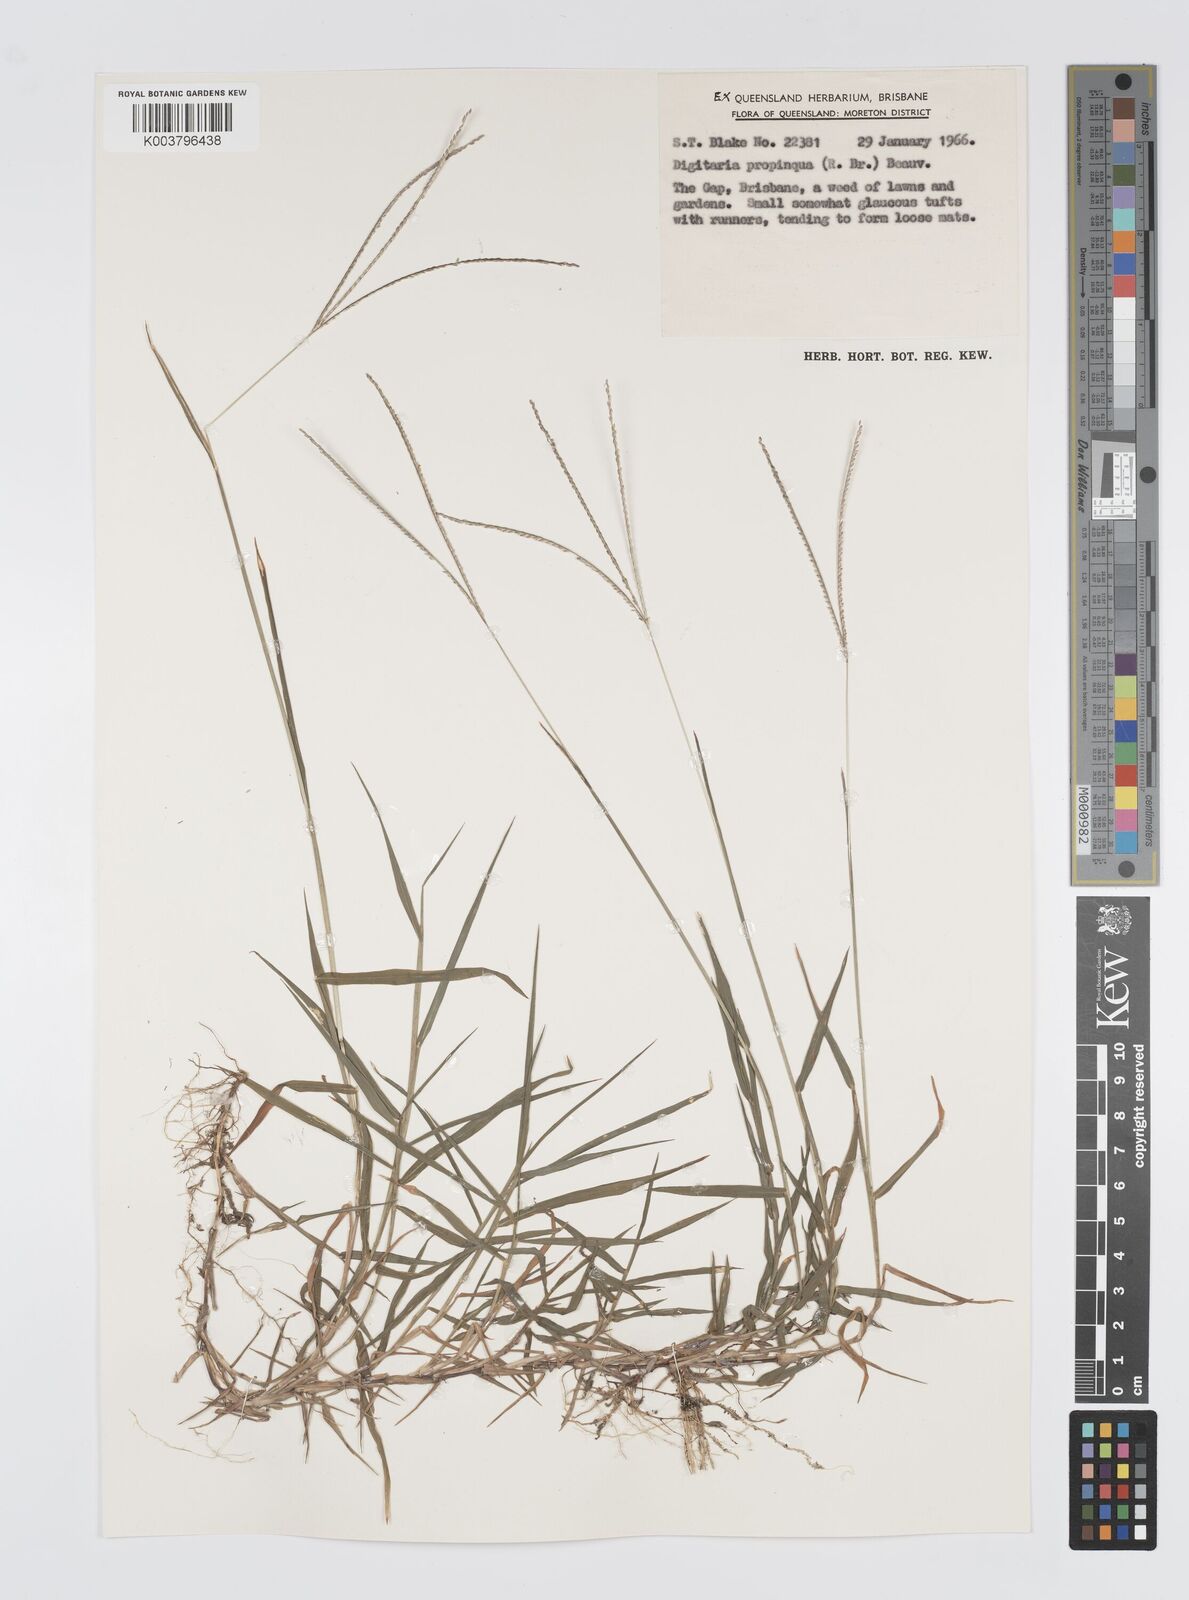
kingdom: Plantae
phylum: Tracheophyta
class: Liliopsida
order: Poales
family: Poaceae
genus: Digitaria
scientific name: Digitaria longiflora
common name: Wire crabgrass
